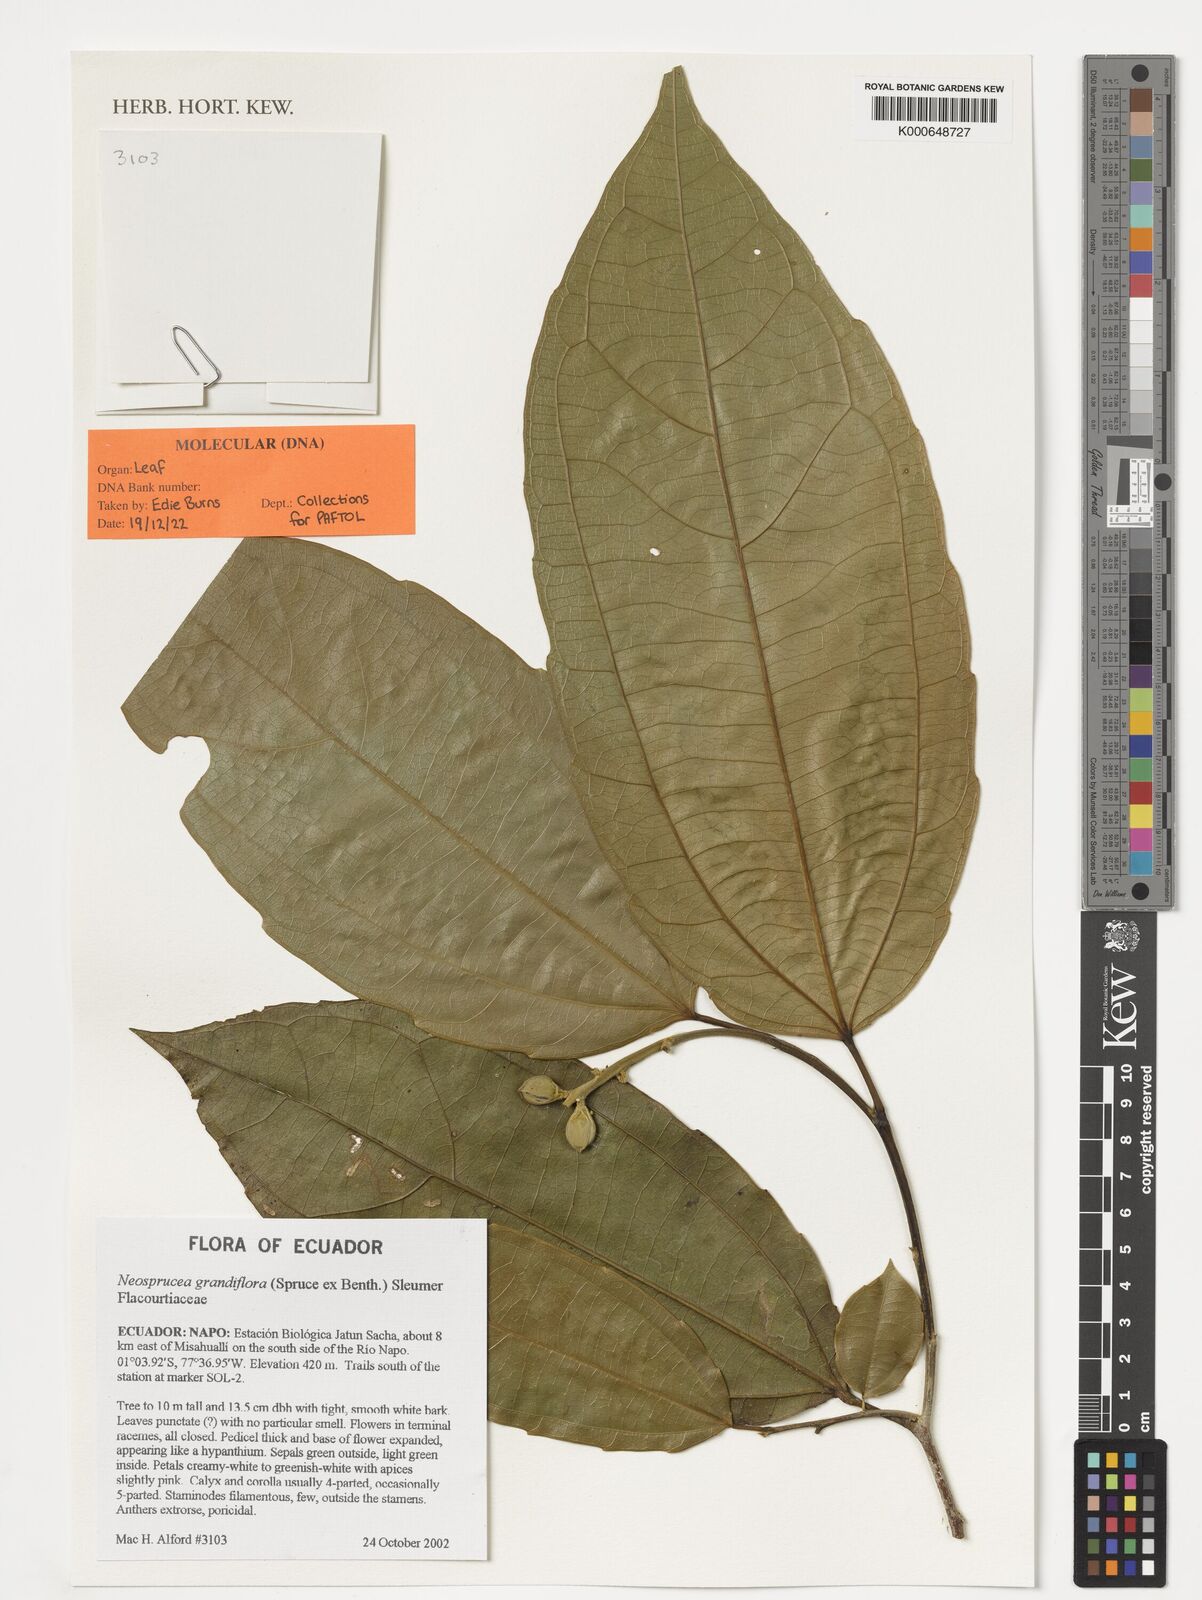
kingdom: Plantae
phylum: Tracheophyta
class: Magnoliopsida
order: Malpighiales
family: Salicaceae
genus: Neosprucea
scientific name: Neosprucea grandiflora
